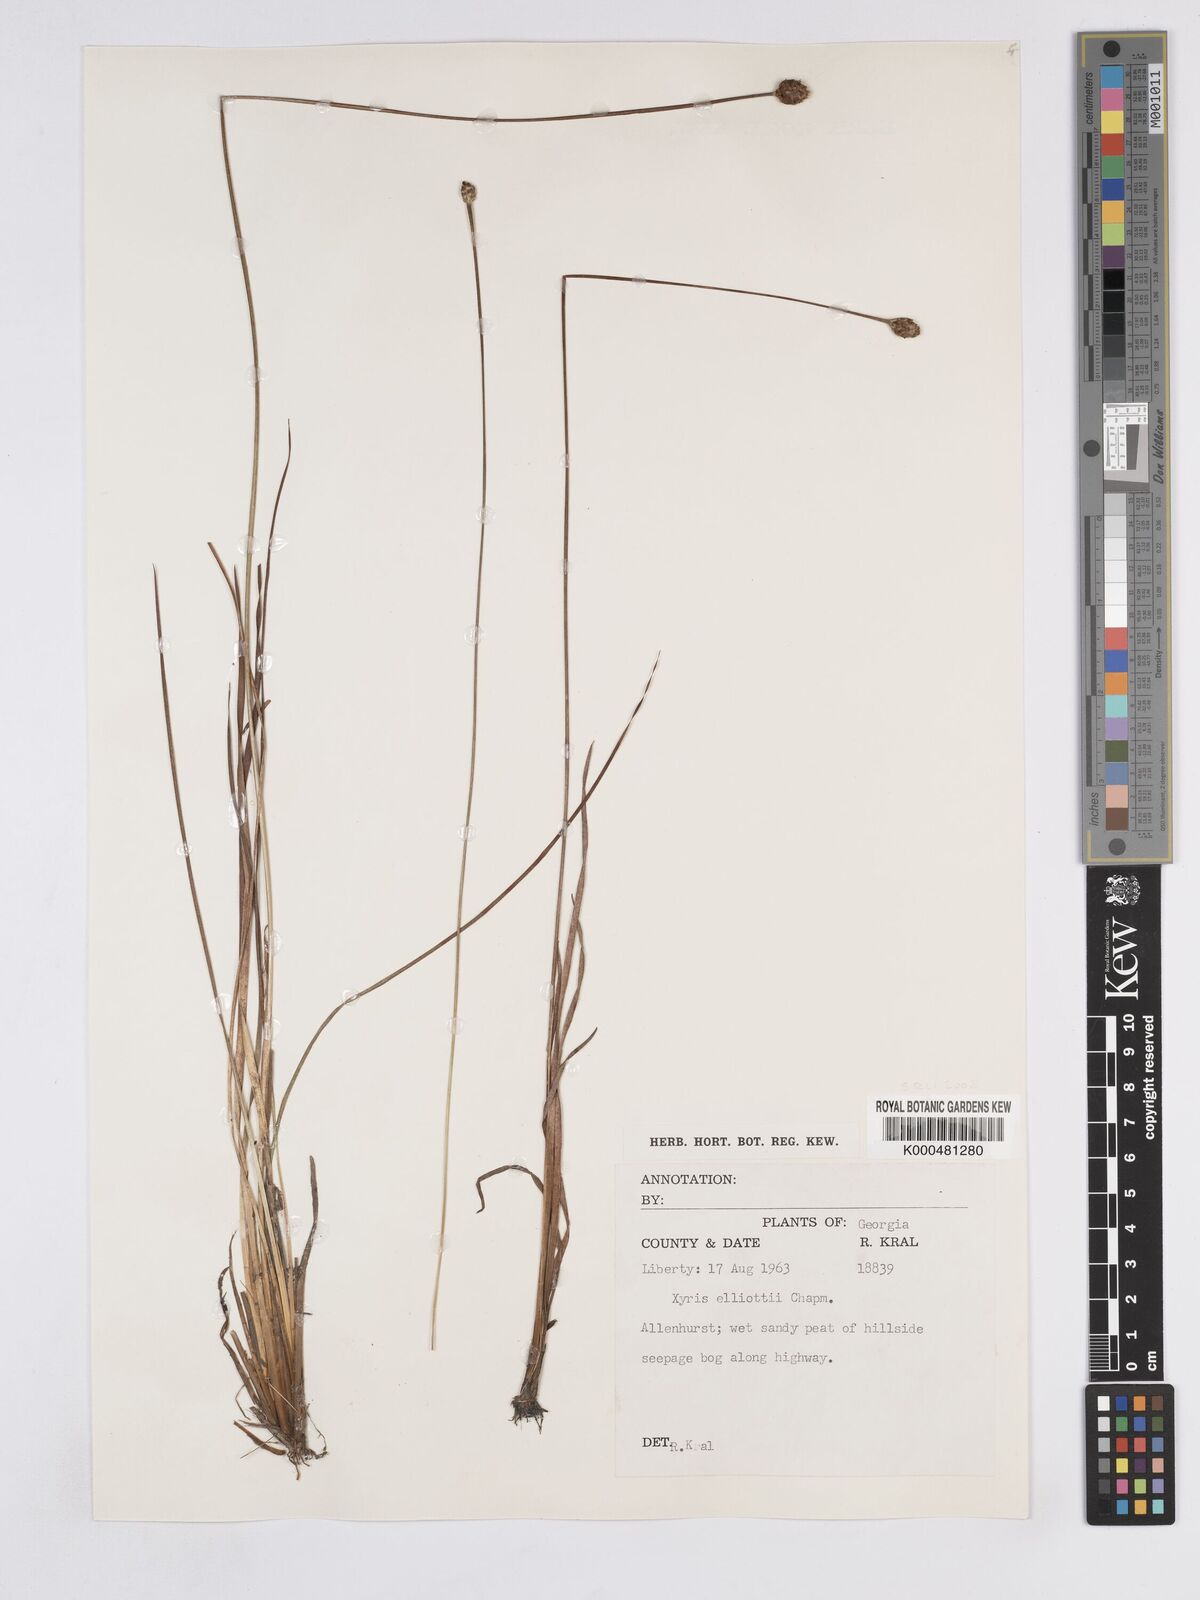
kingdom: Plantae
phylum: Tracheophyta
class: Liliopsida
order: Poales
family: Xyridaceae
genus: Xyris
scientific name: Xyris elliottii
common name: Elliot's yelloweyed grass
